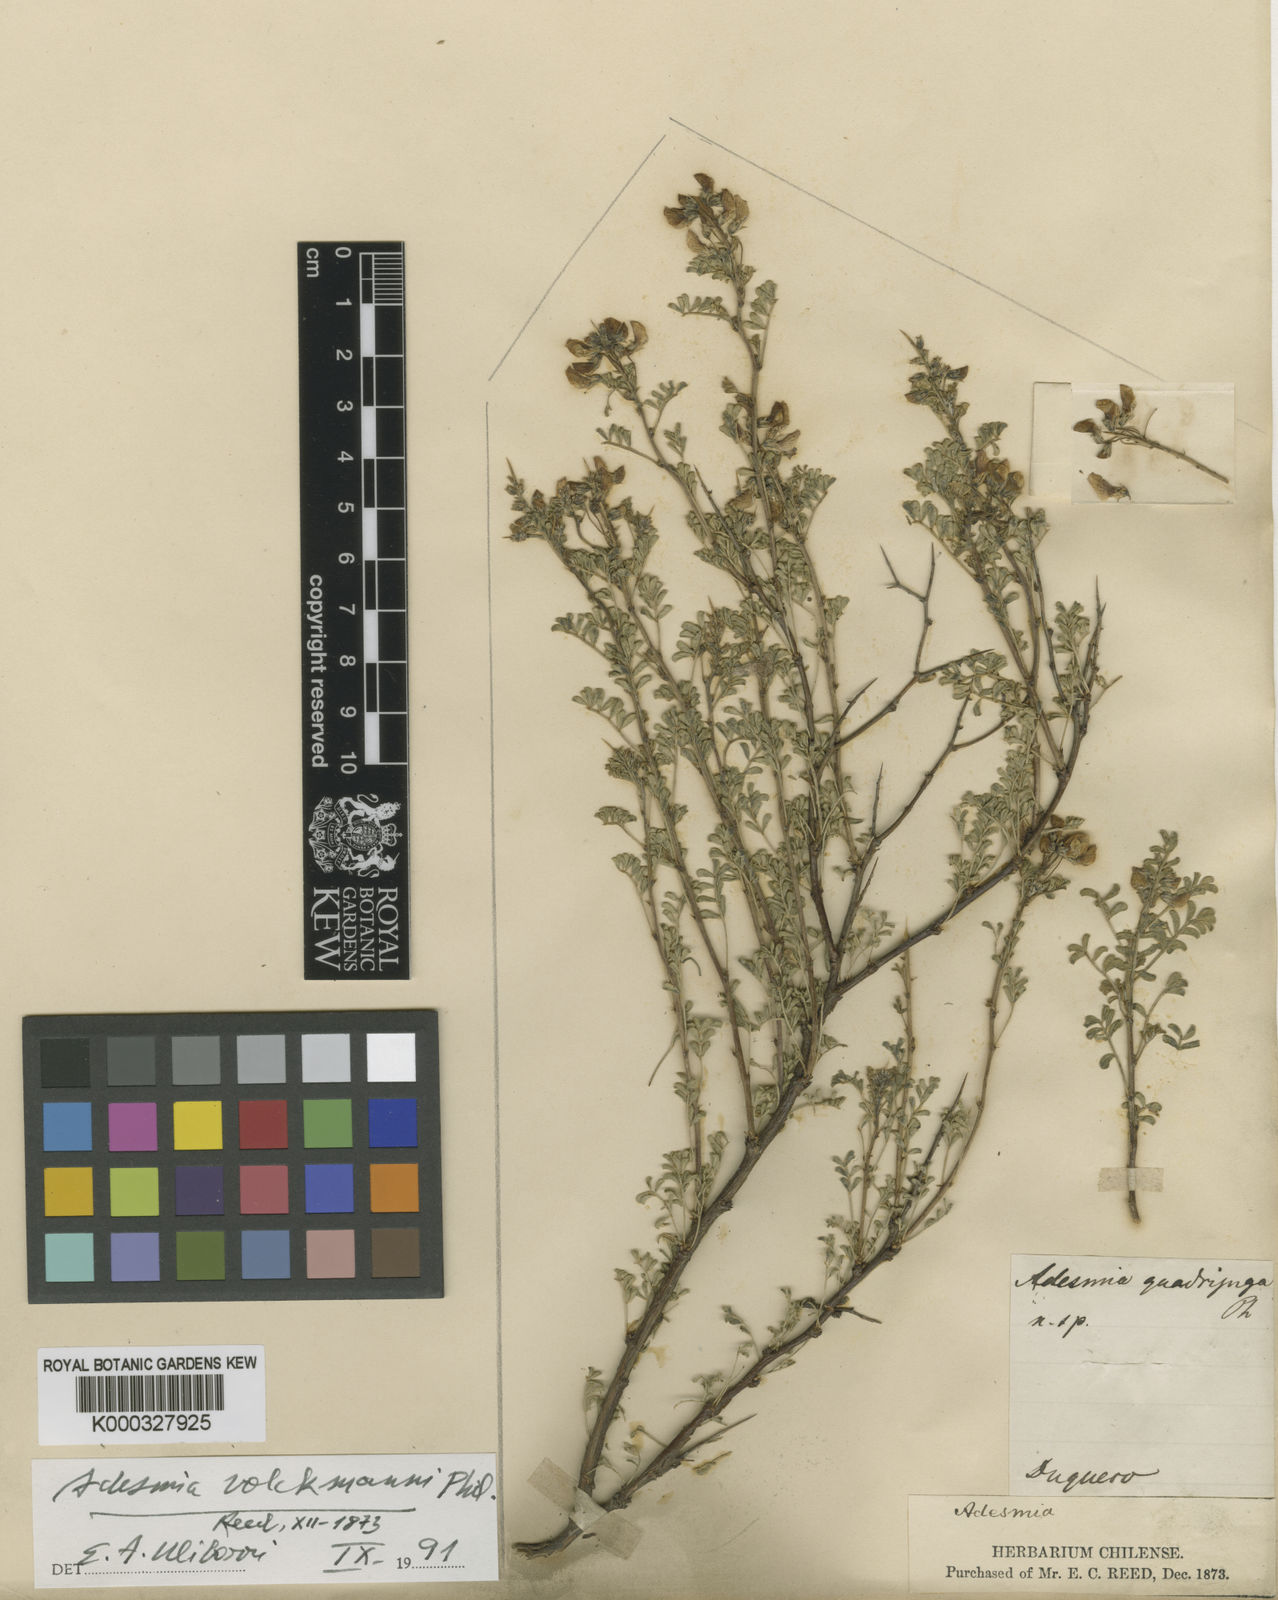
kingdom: Plantae
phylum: Tracheophyta
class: Magnoliopsida
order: Fabales
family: Fabaceae
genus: Adesmia
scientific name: Adesmia volckmannii
